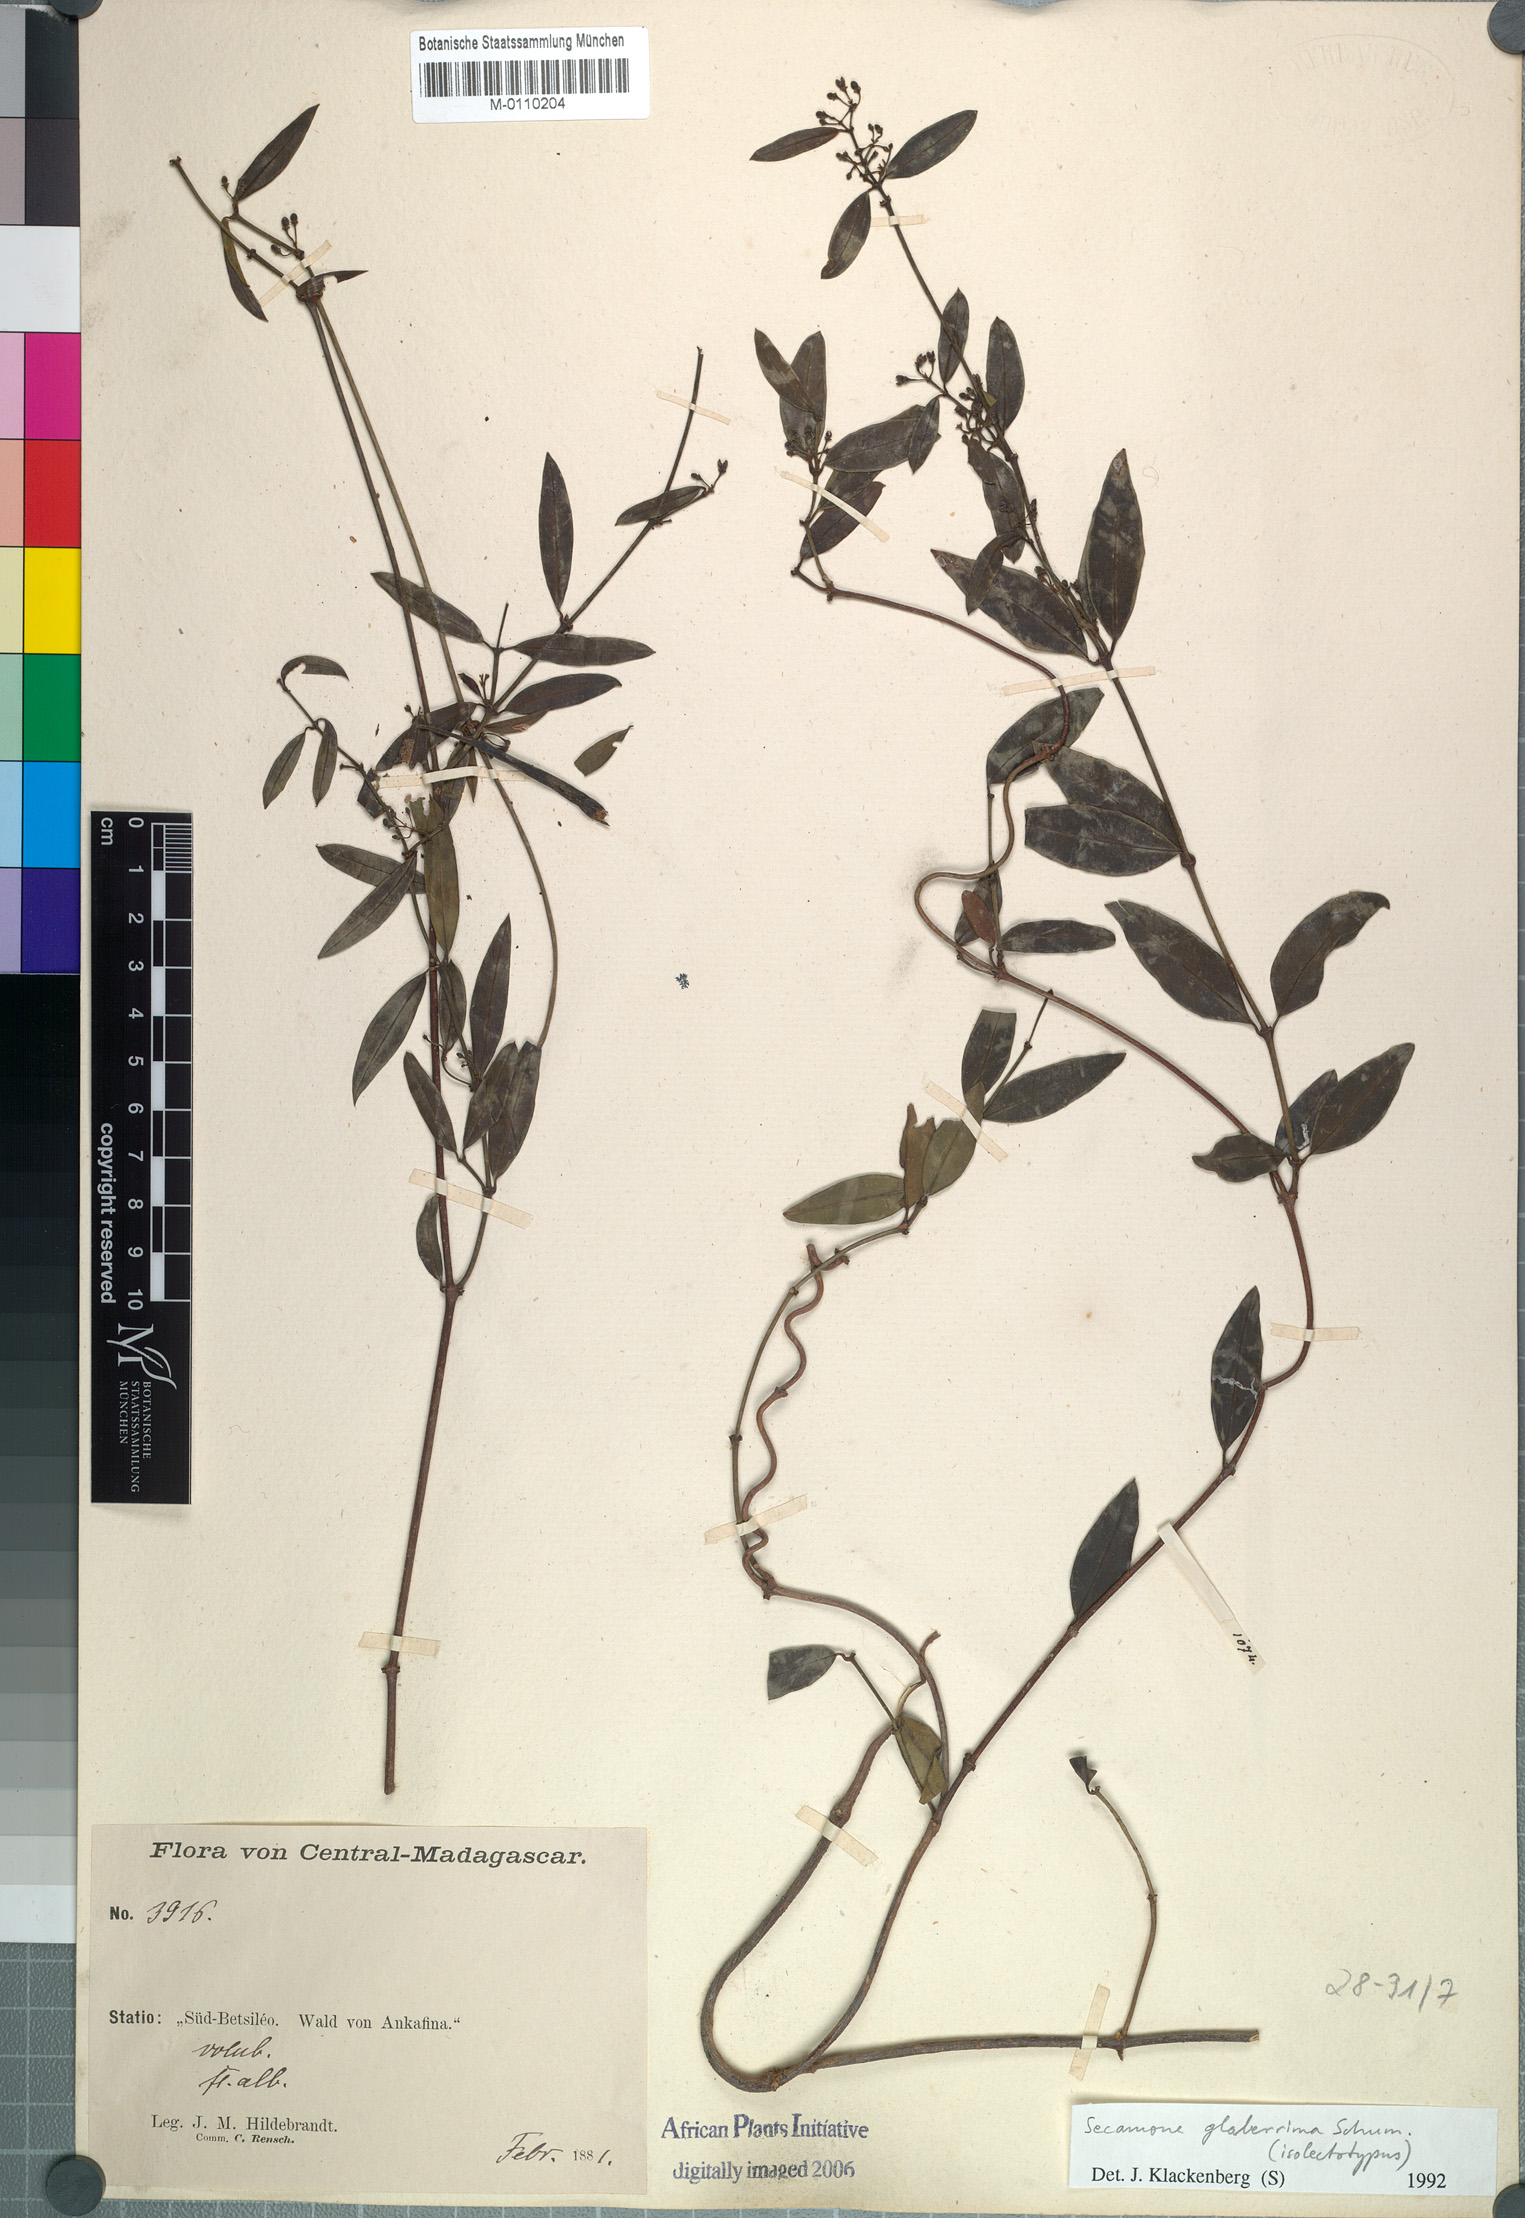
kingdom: Plantae
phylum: Tracheophyta
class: Magnoliopsida
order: Gentianales
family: Apocynaceae
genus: Secamone
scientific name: Secamone glaberrima
